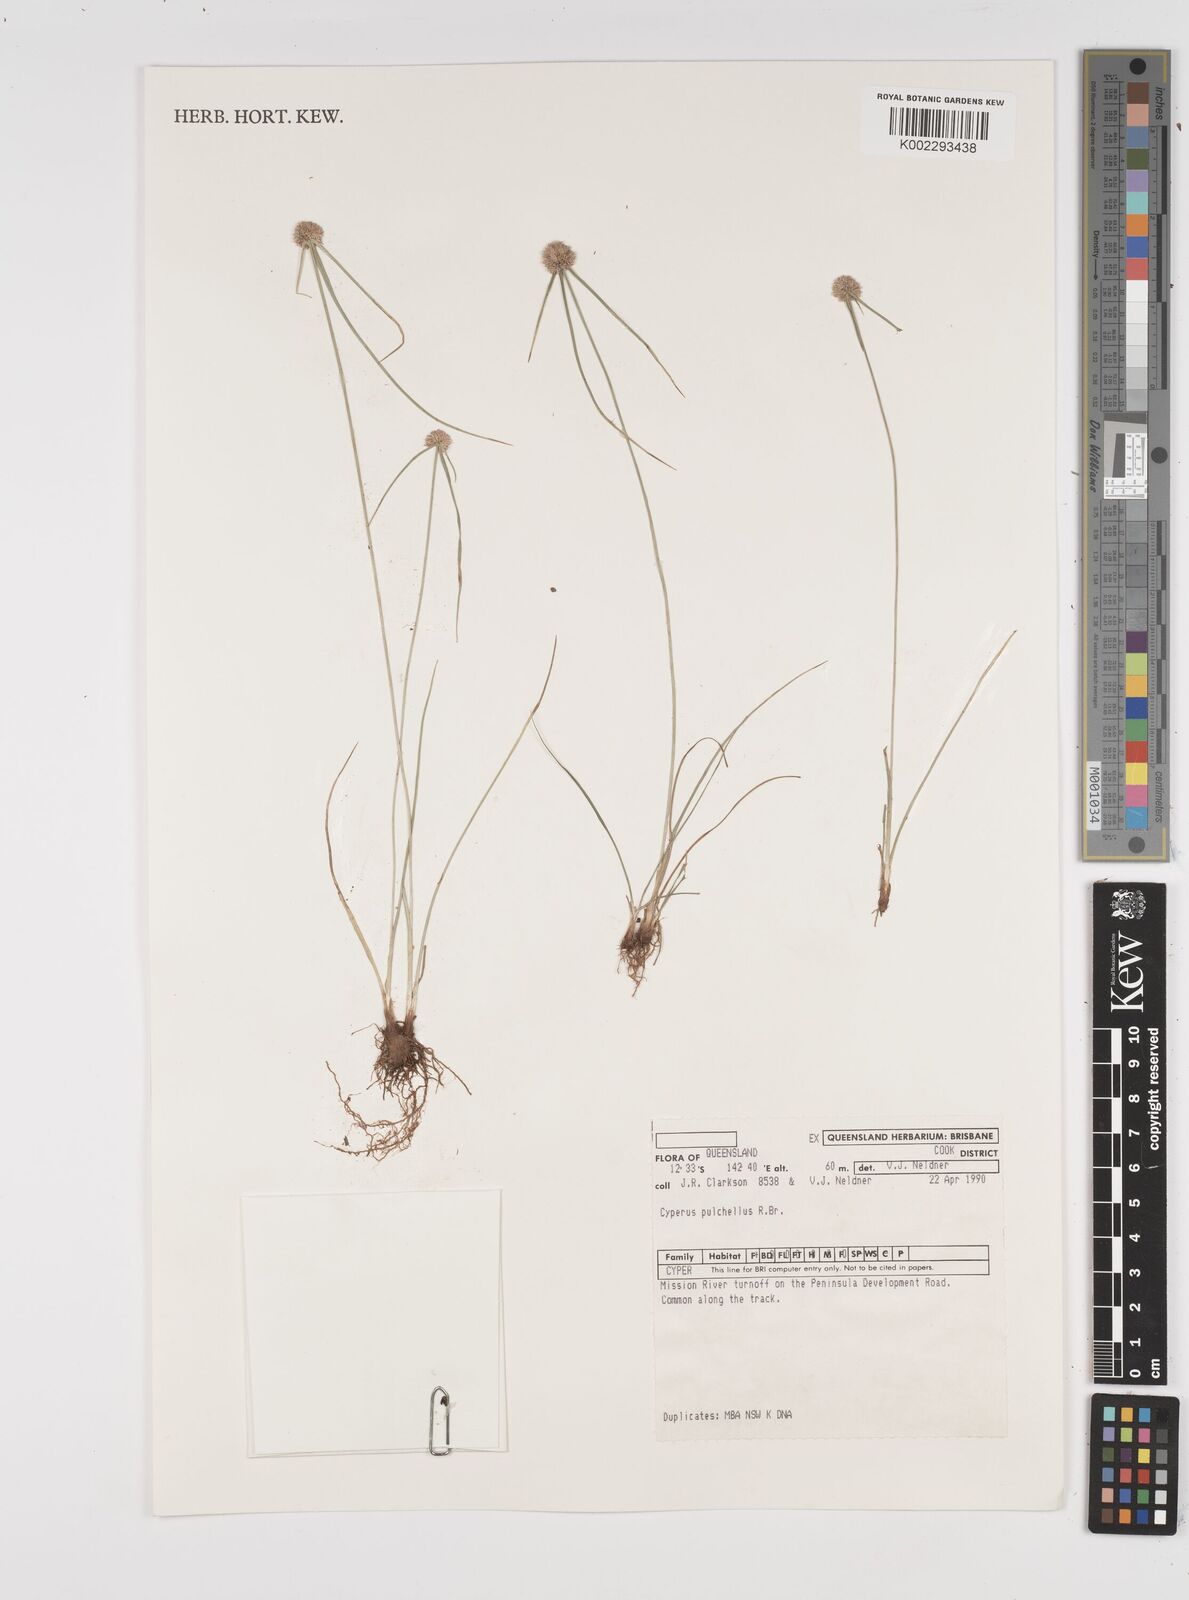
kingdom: Plantae
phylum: Tracheophyta
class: Liliopsida
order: Poales
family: Cyperaceae
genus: Cyperus
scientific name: Cyperus pulchellus
